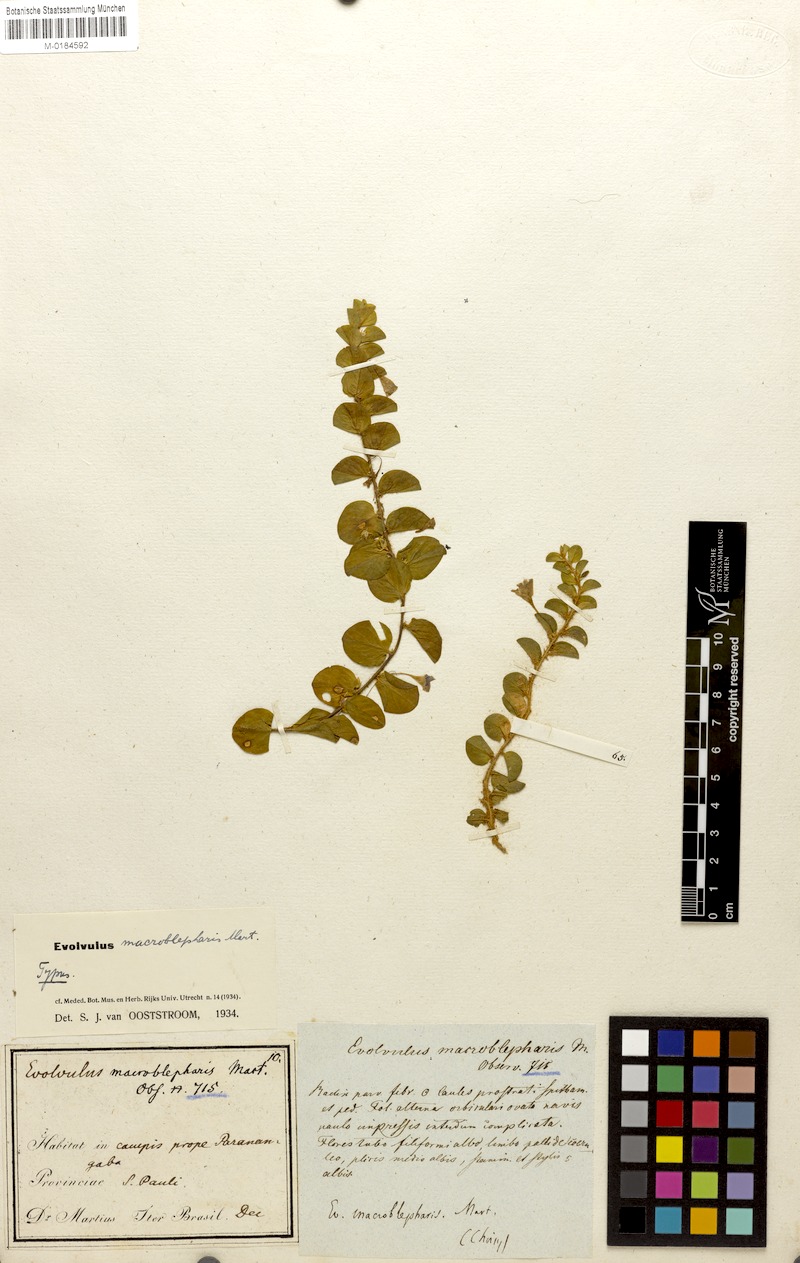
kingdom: Plantae
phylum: Tracheophyta
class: Magnoliopsida
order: Solanales
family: Convolvulaceae
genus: Evolvulus
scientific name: Evolvulus macroblepharis
